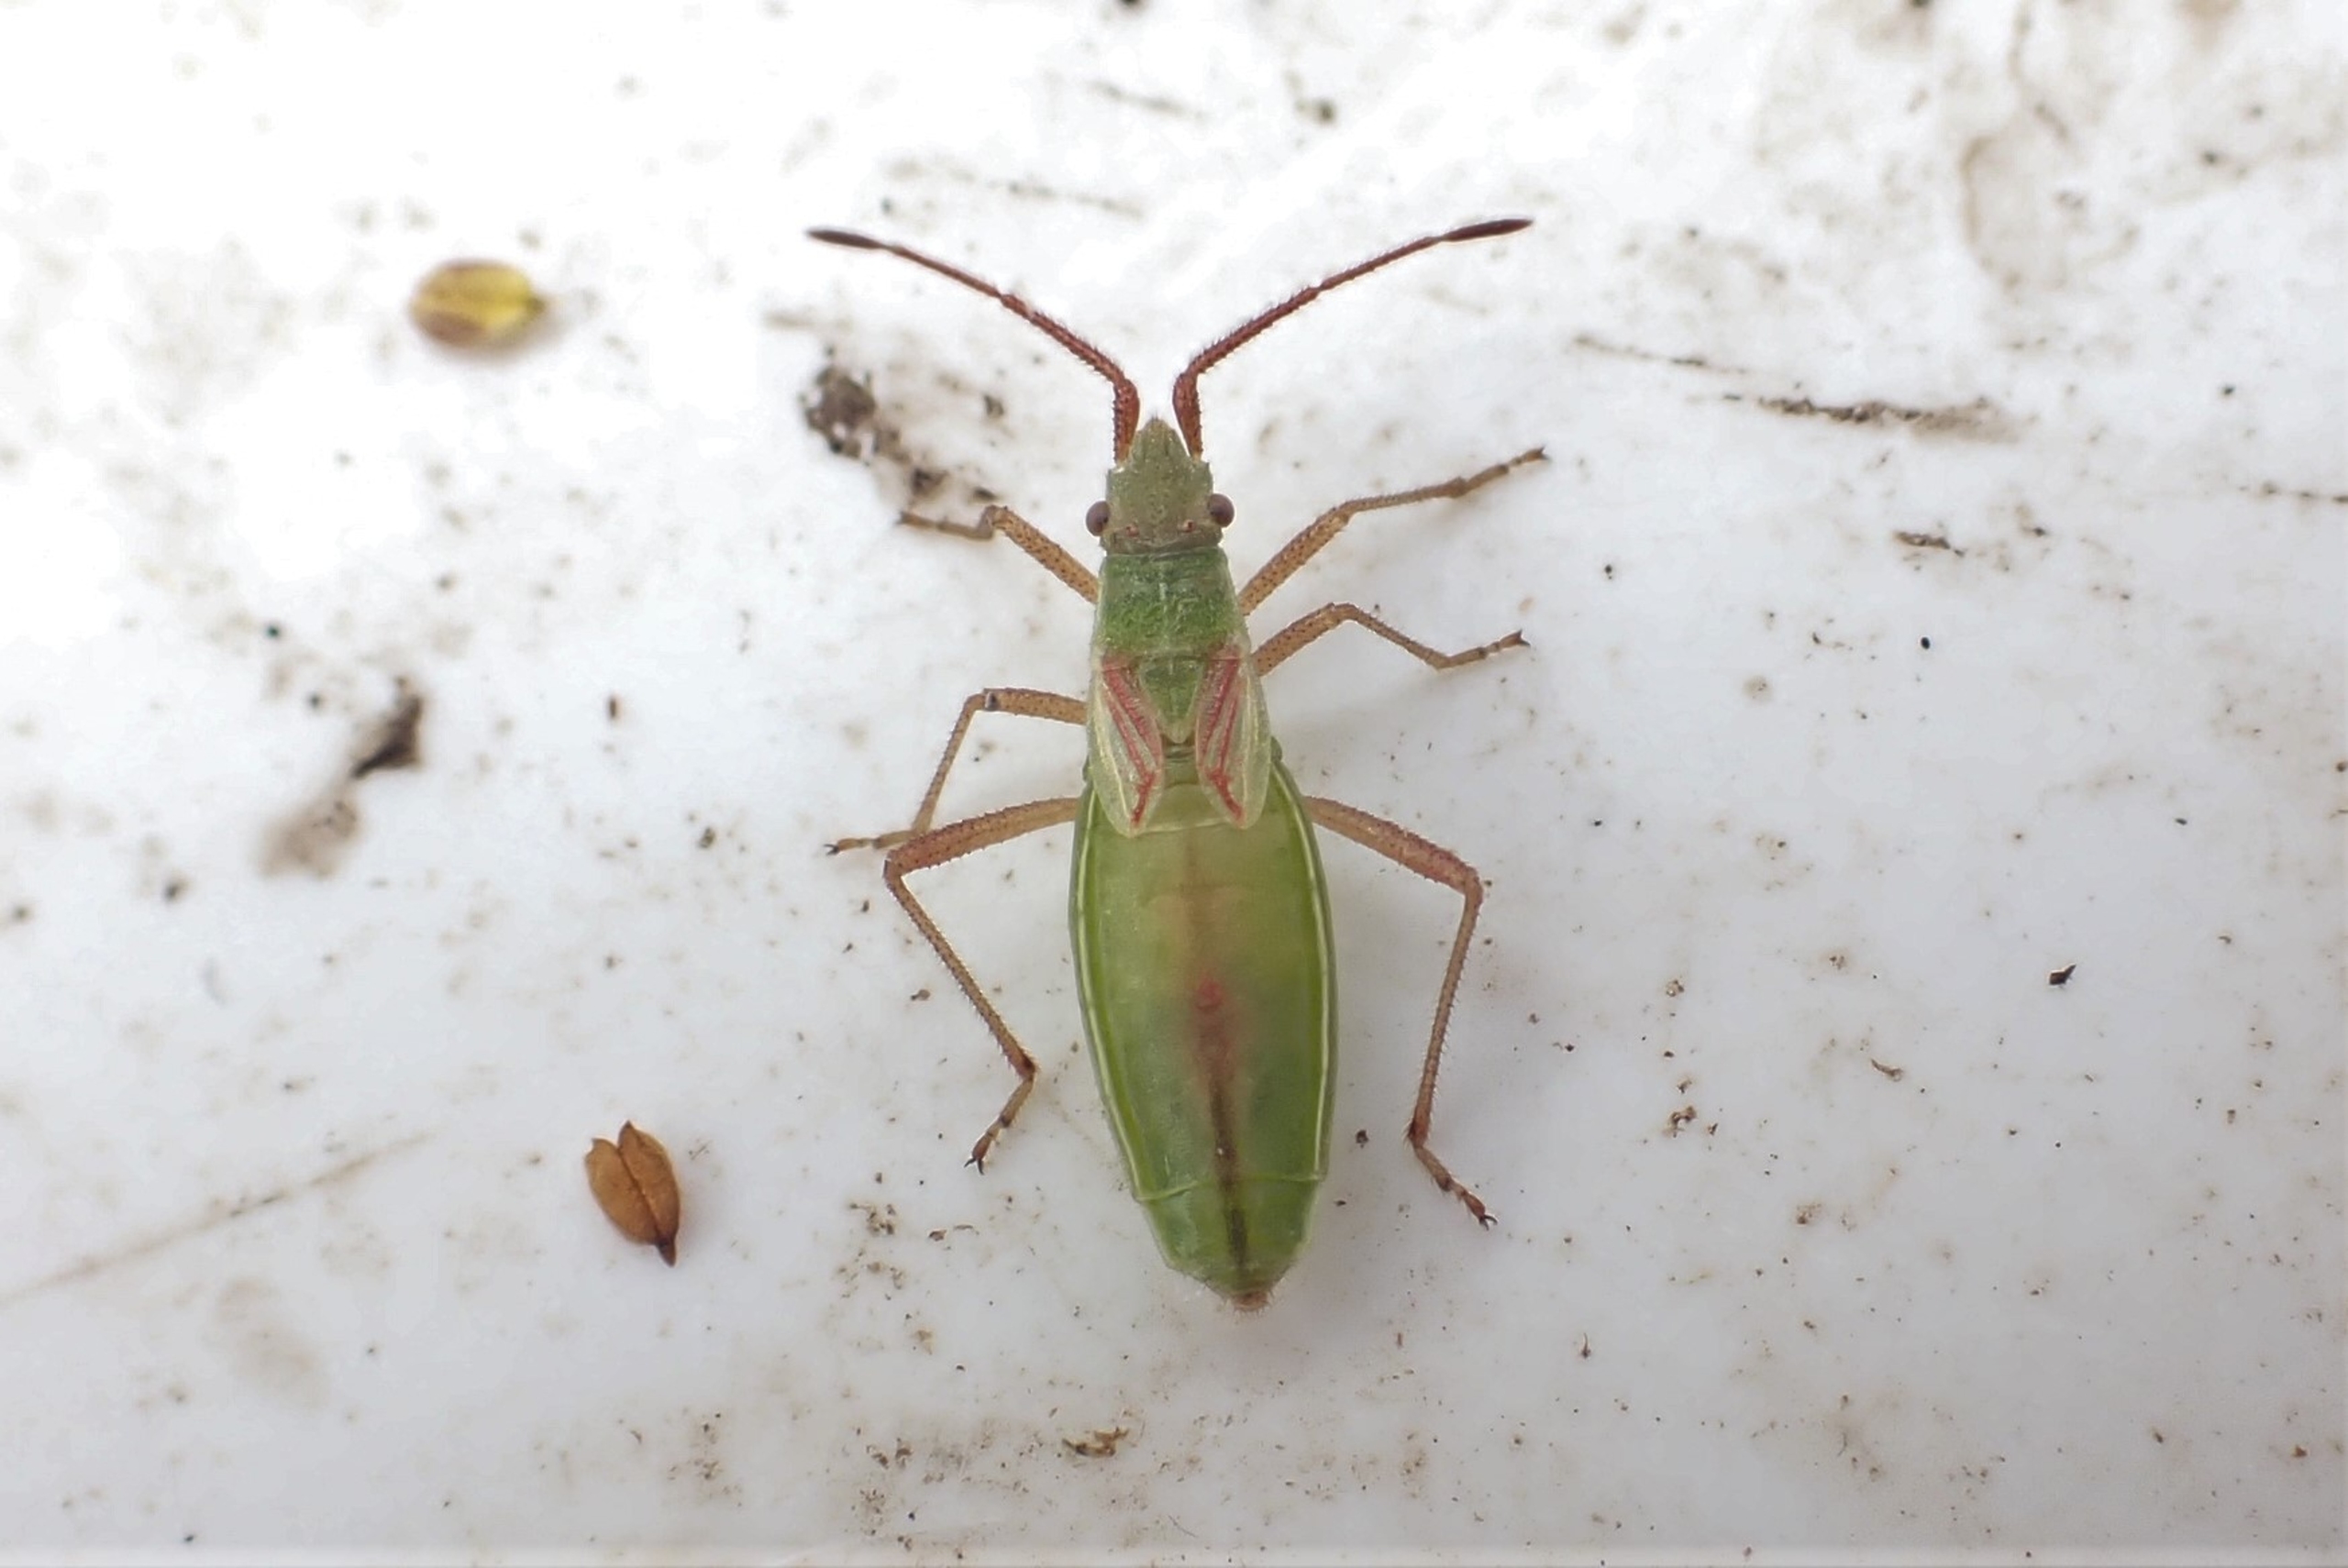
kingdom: Animalia
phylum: Arthropoda
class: Insecta
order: Hemiptera
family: Rhopalidae
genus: Myrmus
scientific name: Myrmus miriformis
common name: Lille stråtæge
